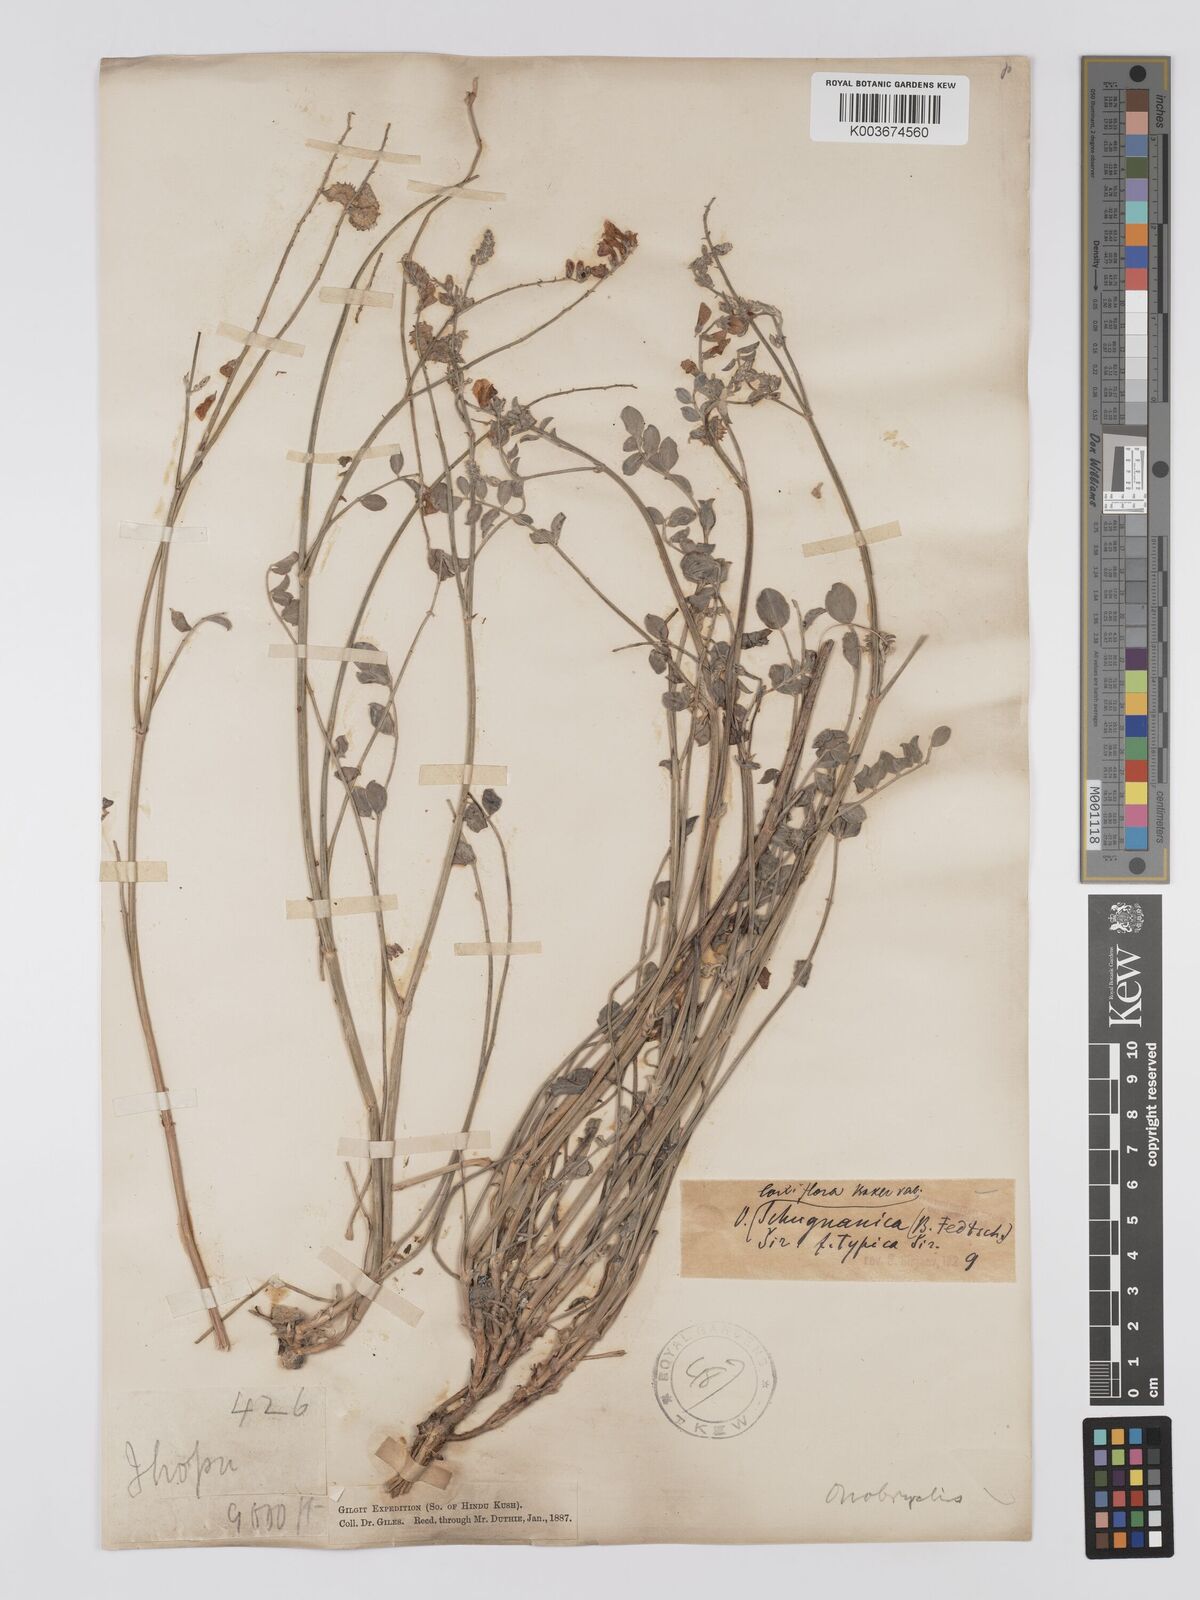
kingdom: Plantae
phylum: Tracheophyta
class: Magnoliopsida
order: Fabales
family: Fabaceae
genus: Onobrychis
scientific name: Onobrychis laxiflora
